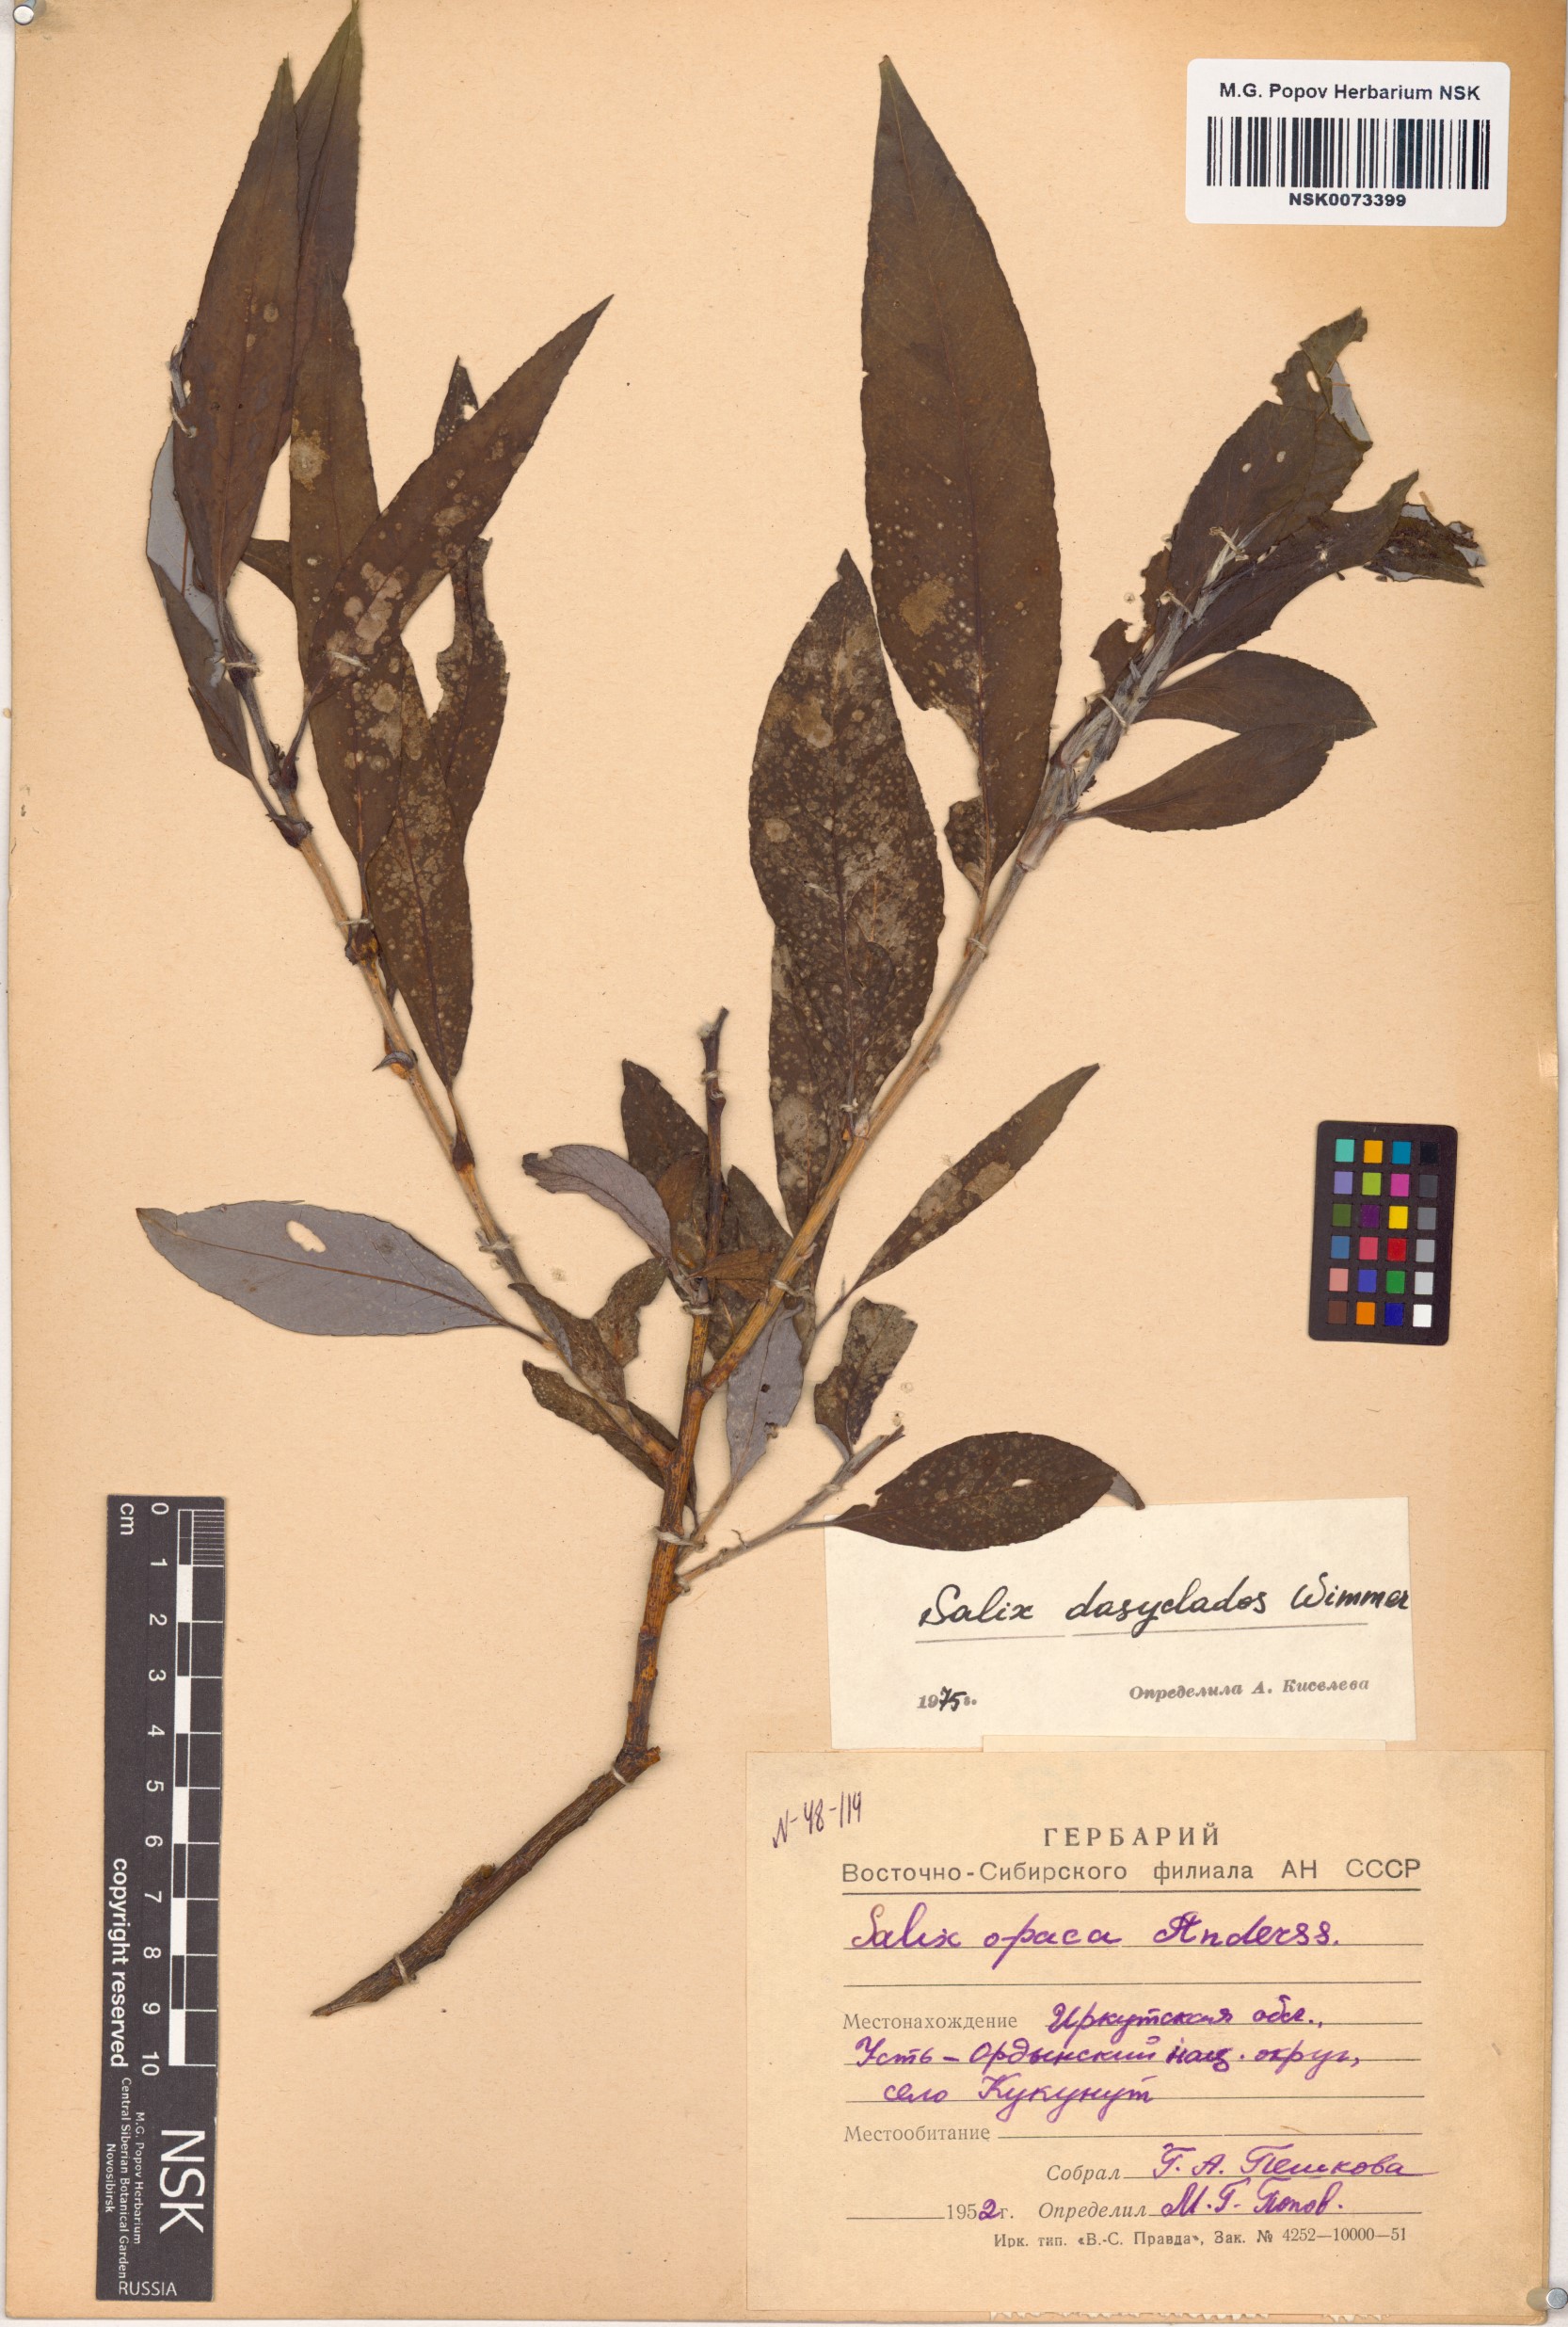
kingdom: Plantae
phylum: Tracheophyta
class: Magnoliopsida
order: Malpighiales
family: Salicaceae
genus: Salix
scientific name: Salix gmelinii
